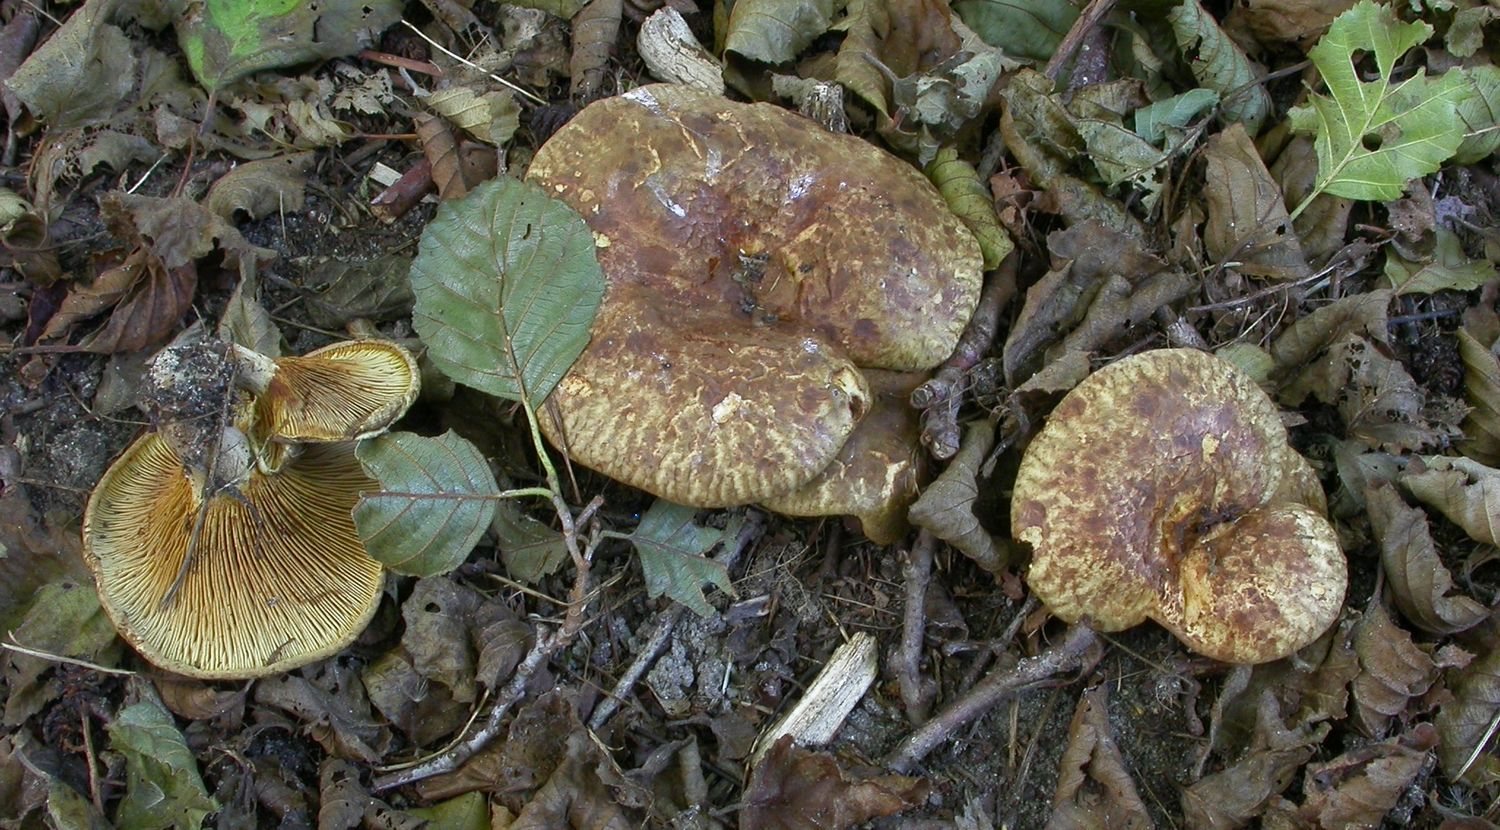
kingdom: Fungi
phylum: Basidiomycota
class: Agaricomycetes
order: Boletales
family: Paxillaceae
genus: Paxillus
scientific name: Paxillus rubicundulus
